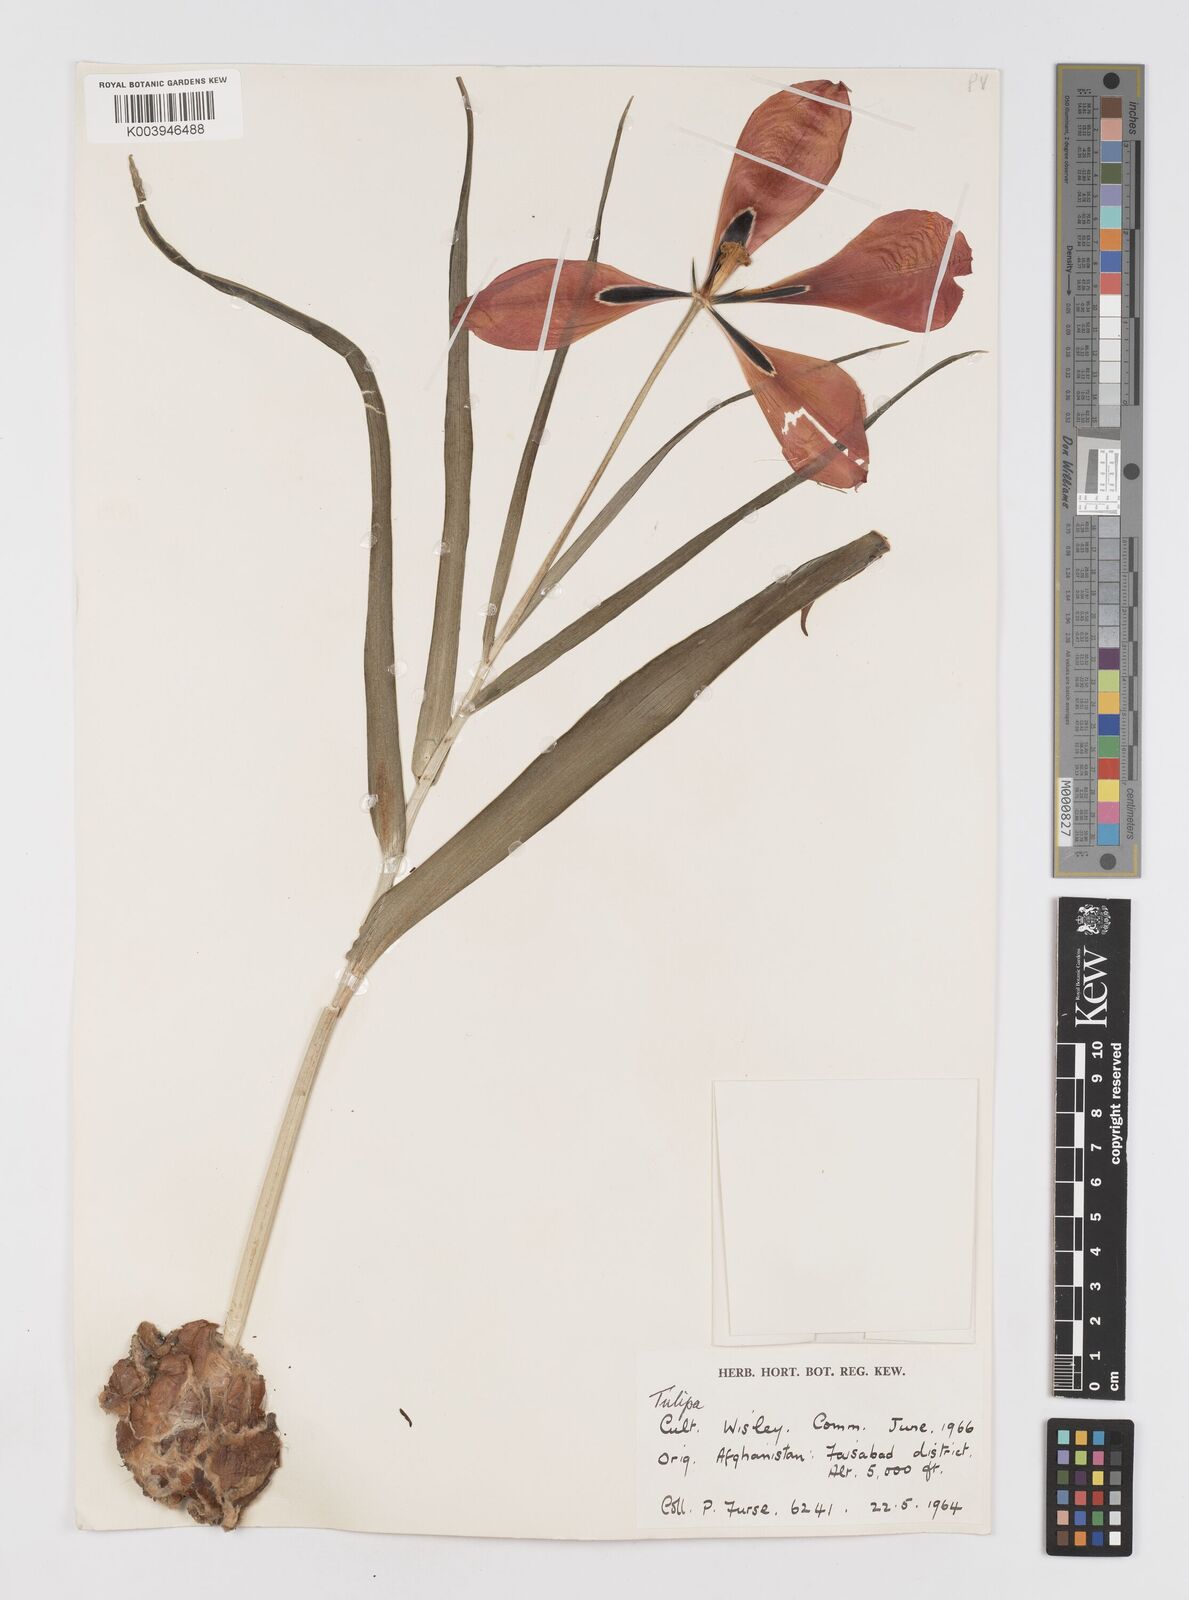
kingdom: Plantae
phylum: Tracheophyta
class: Liliopsida
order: Liliales
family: Liliaceae
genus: Tulipa
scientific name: Tulipa
